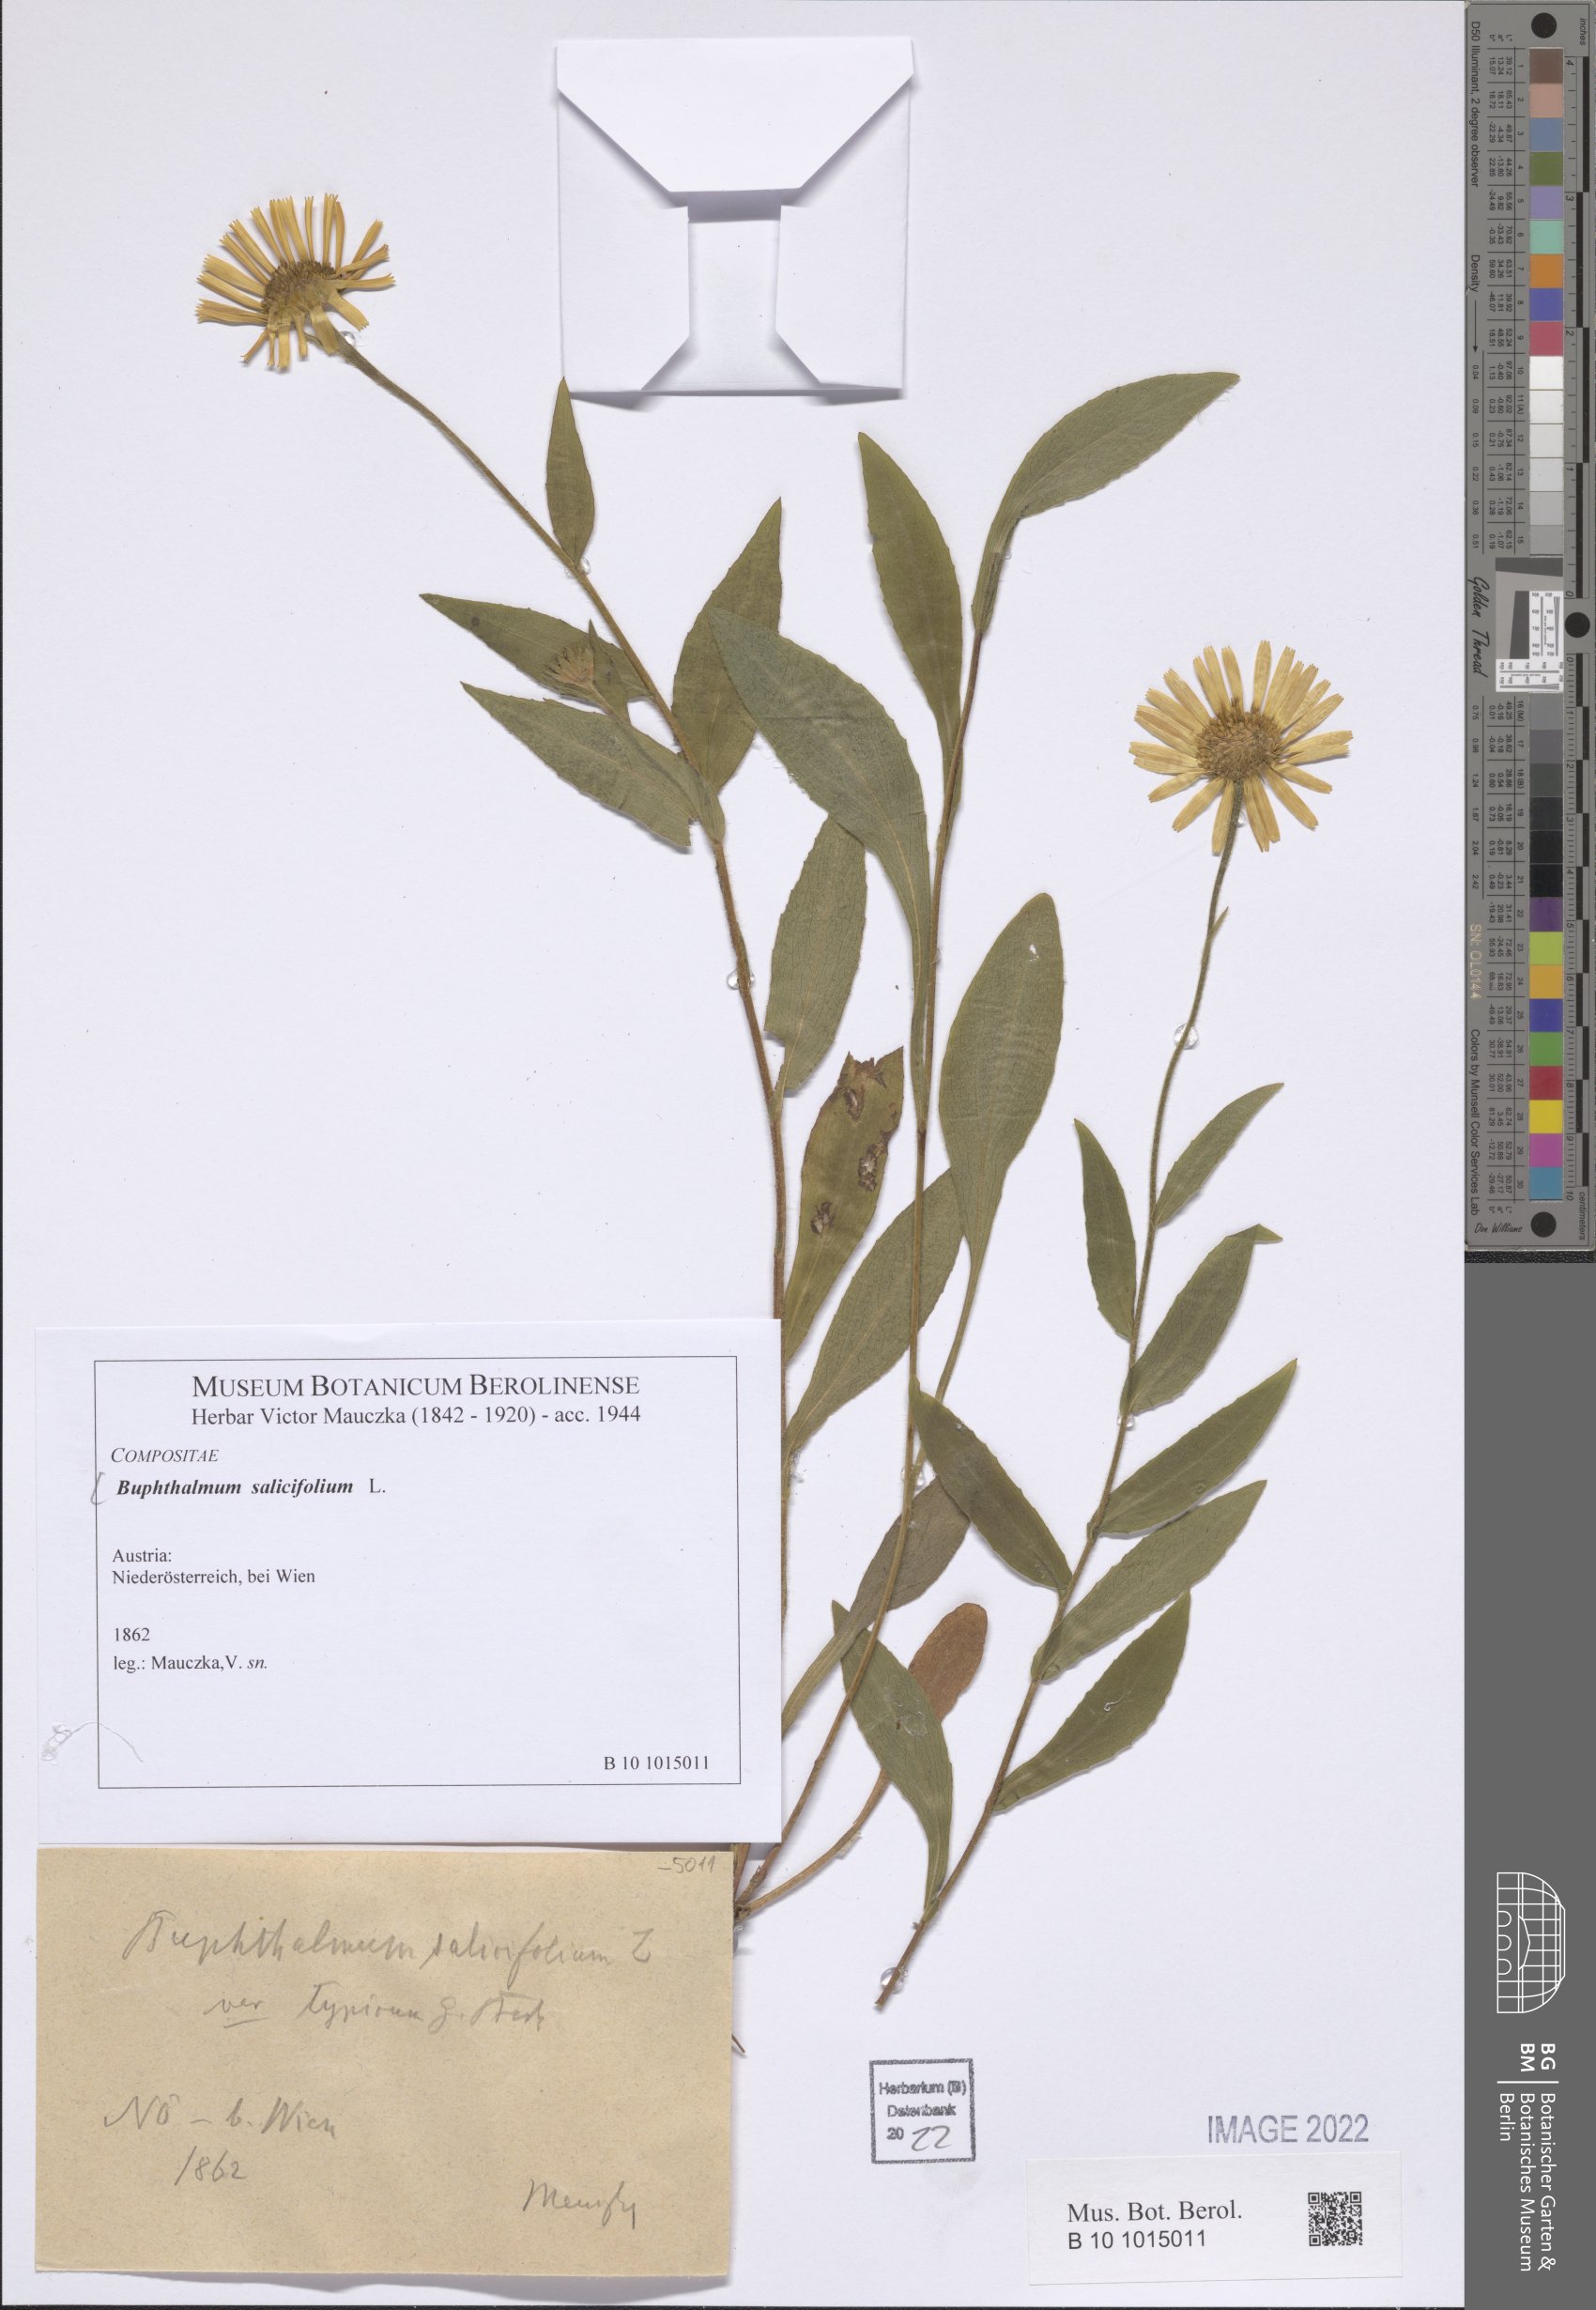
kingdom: Plantae
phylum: Tracheophyta
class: Magnoliopsida
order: Asterales
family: Asteraceae
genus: Buphthalmum
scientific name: Buphthalmum salicifolium
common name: Willow-leaved yellow-oxeye
